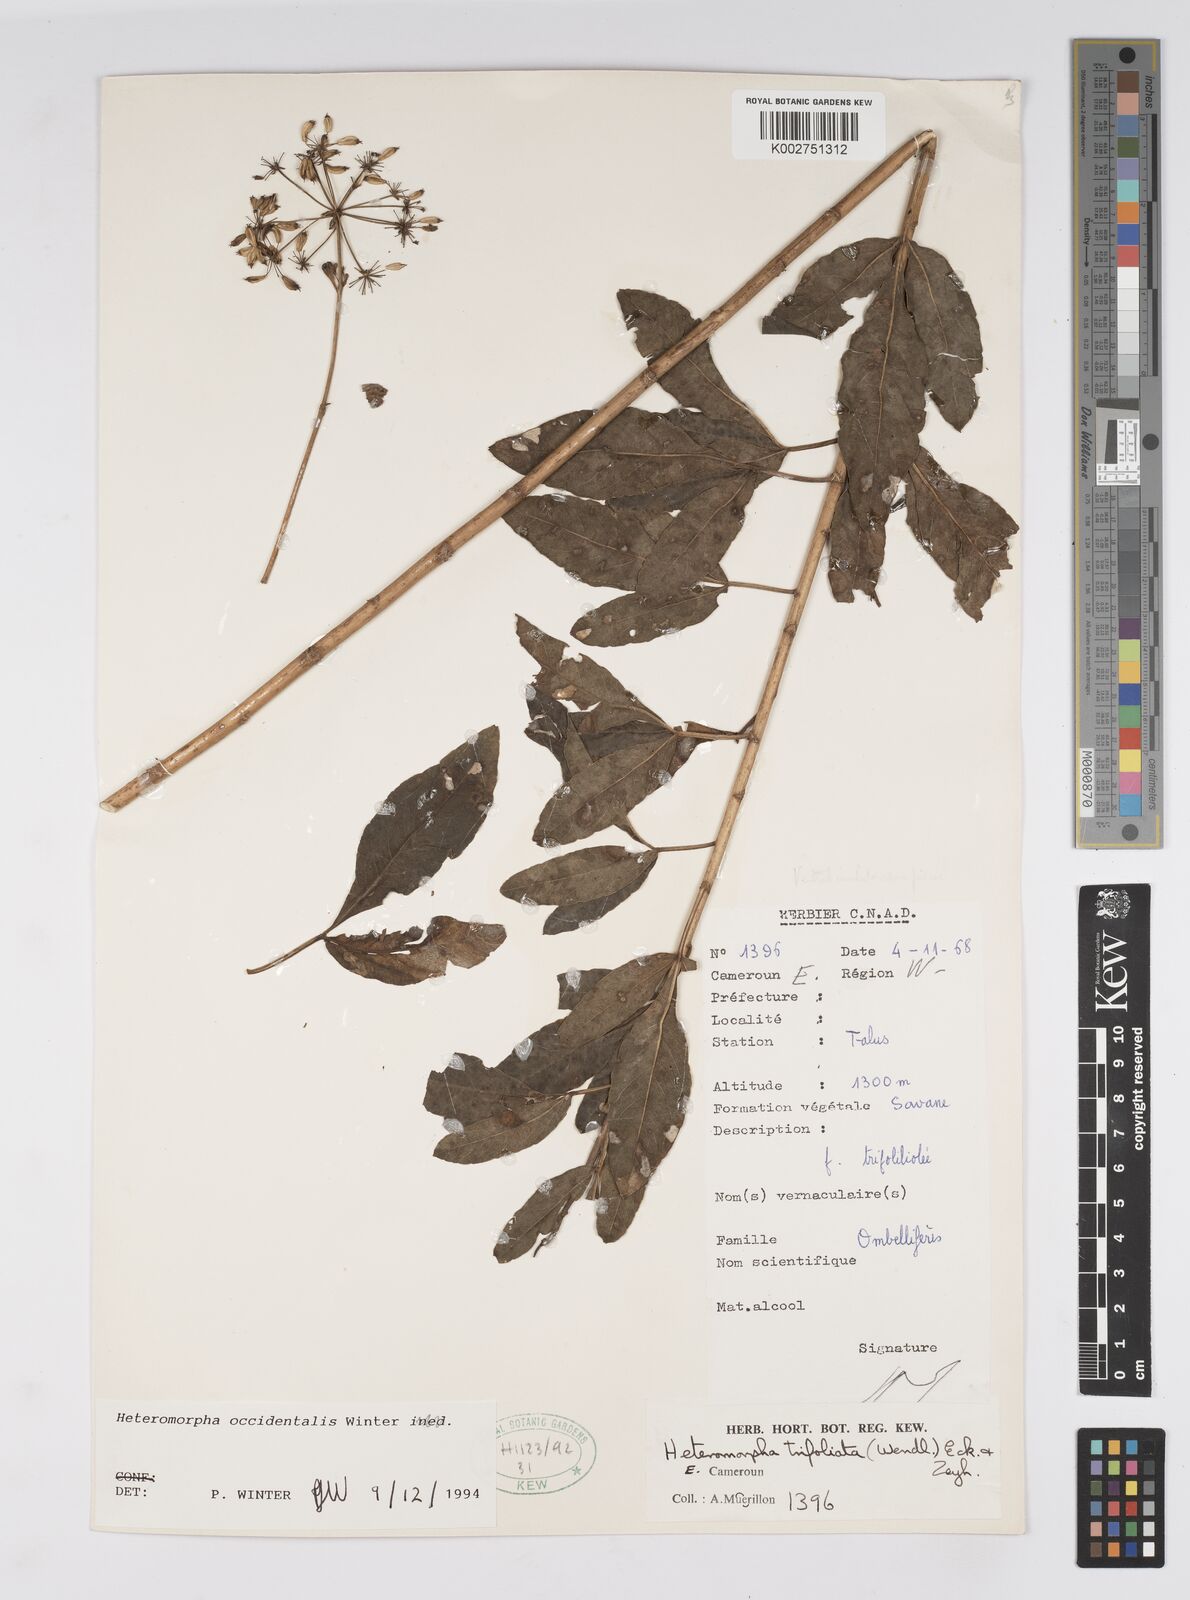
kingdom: Plantae
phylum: Tracheophyta
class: Magnoliopsida
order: Apiales
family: Apiaceae
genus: Heteromorpha
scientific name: Heteromorpha occidentalis
